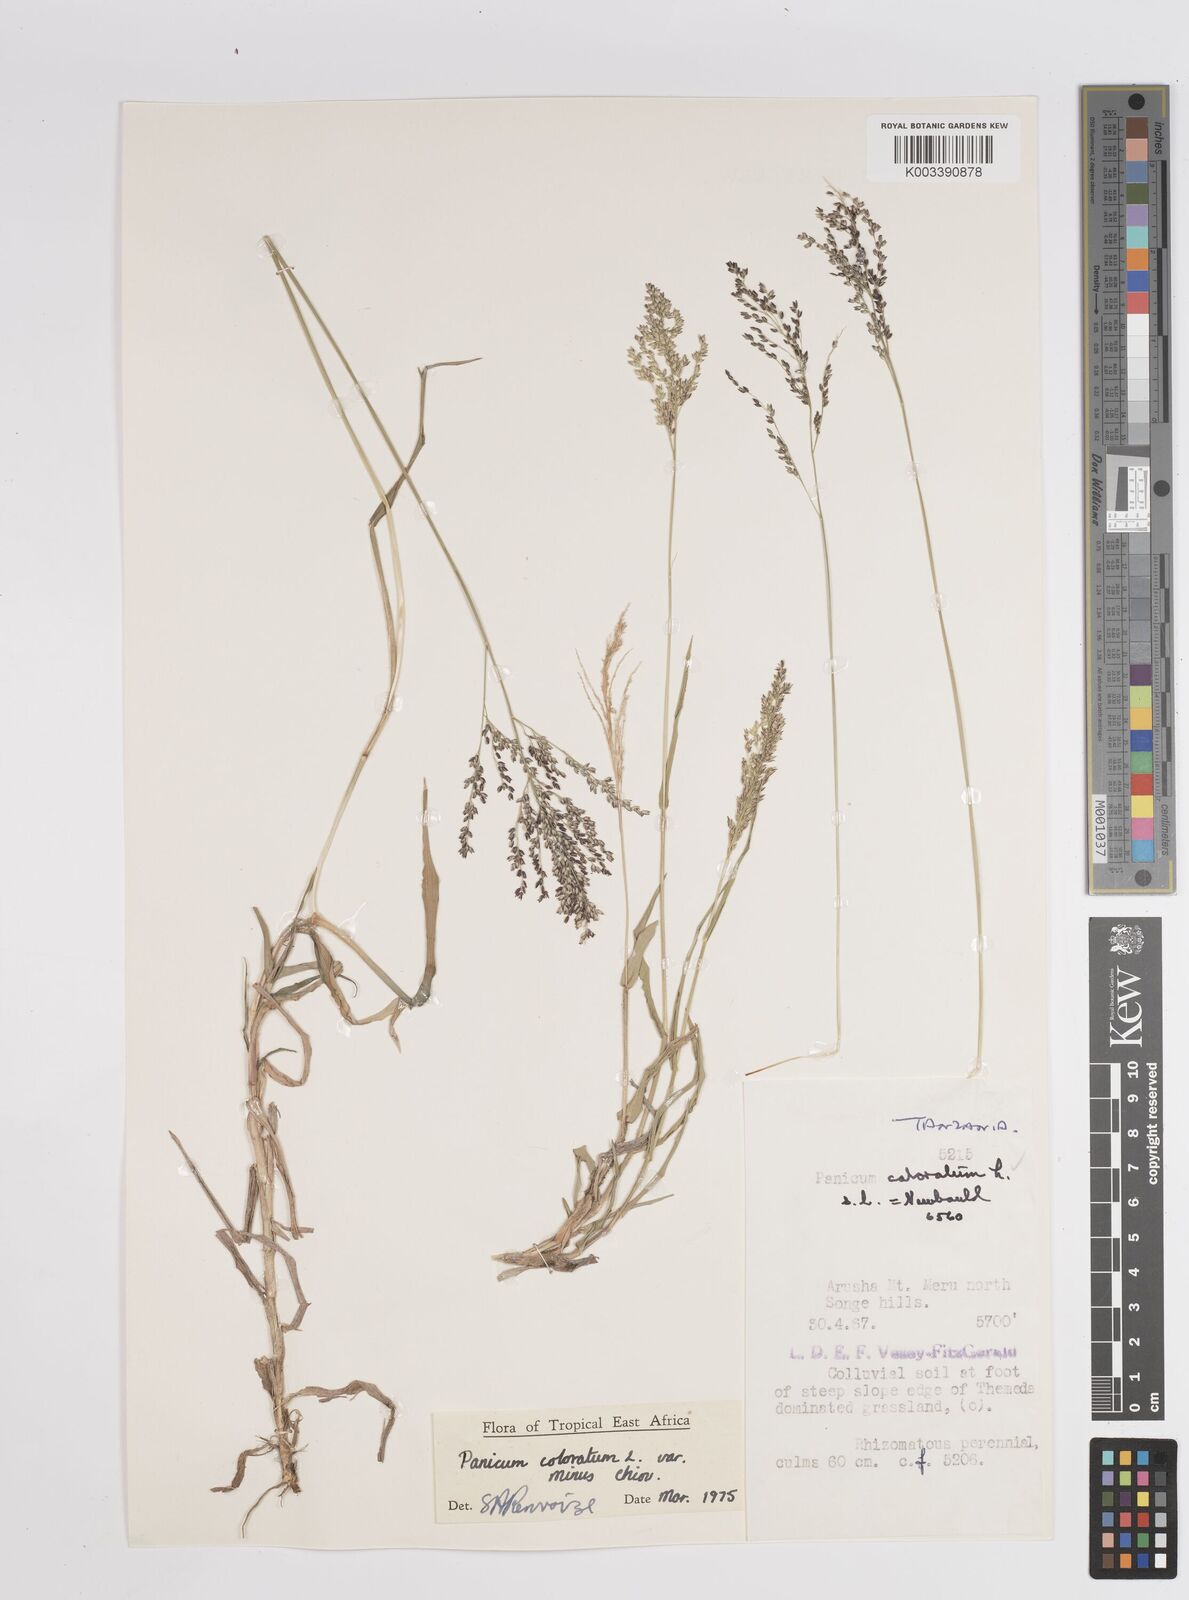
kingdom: Plantae
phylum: Tracheophyta
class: Liliopsida
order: Poales
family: Poaceae
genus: Panicum
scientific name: Panicum coloratum
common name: Kleingrass
